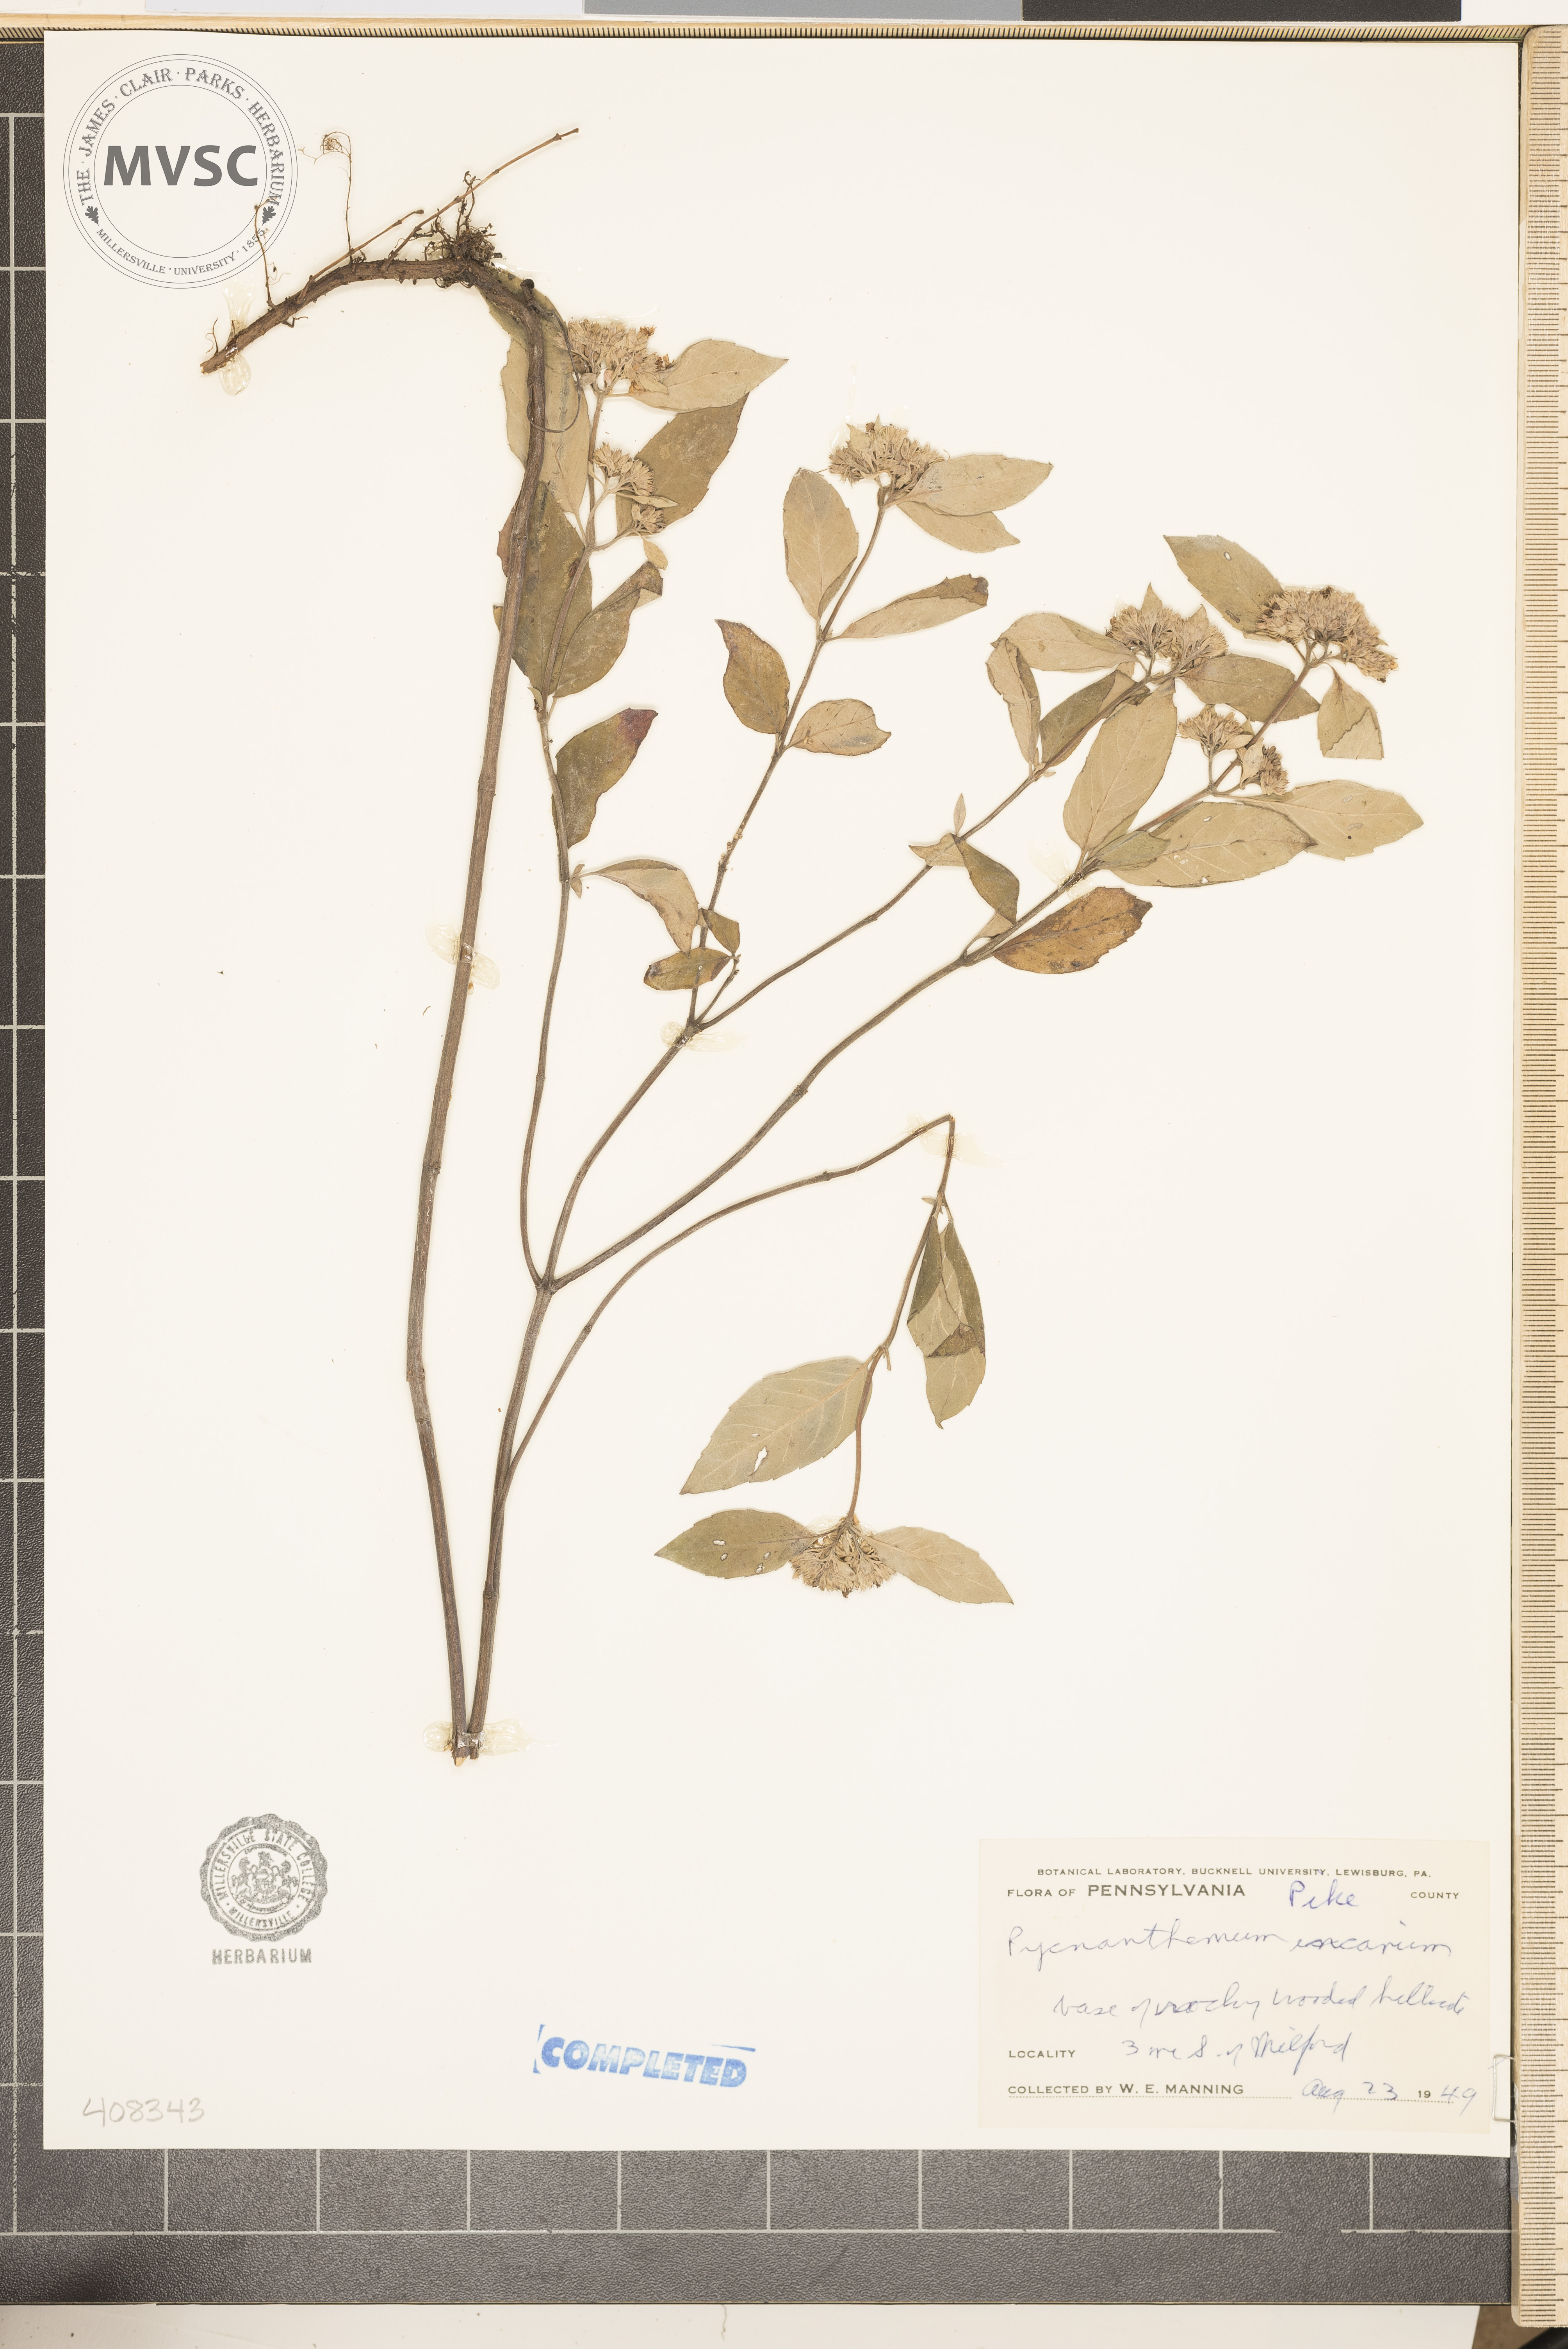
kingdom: Plantae
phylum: Tracheophyta
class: Magnoliopsida
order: Lamiales
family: Lamiaceae
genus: Pycnanthemum
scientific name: Pycnanthemum incanum
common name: Hoary mountain-mint
